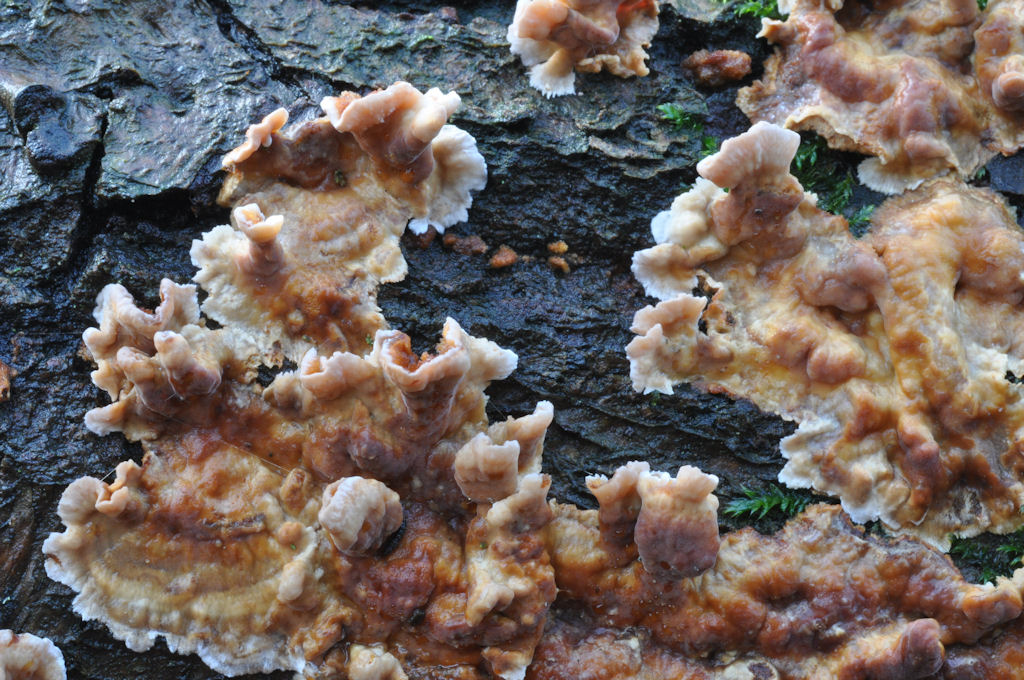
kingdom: Fungi
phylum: Basidiomycota
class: Agaricomycetes
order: Russulales
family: Stereaceae
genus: Stereum
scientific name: Stereum gausapatum
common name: tynd lædersvamp
